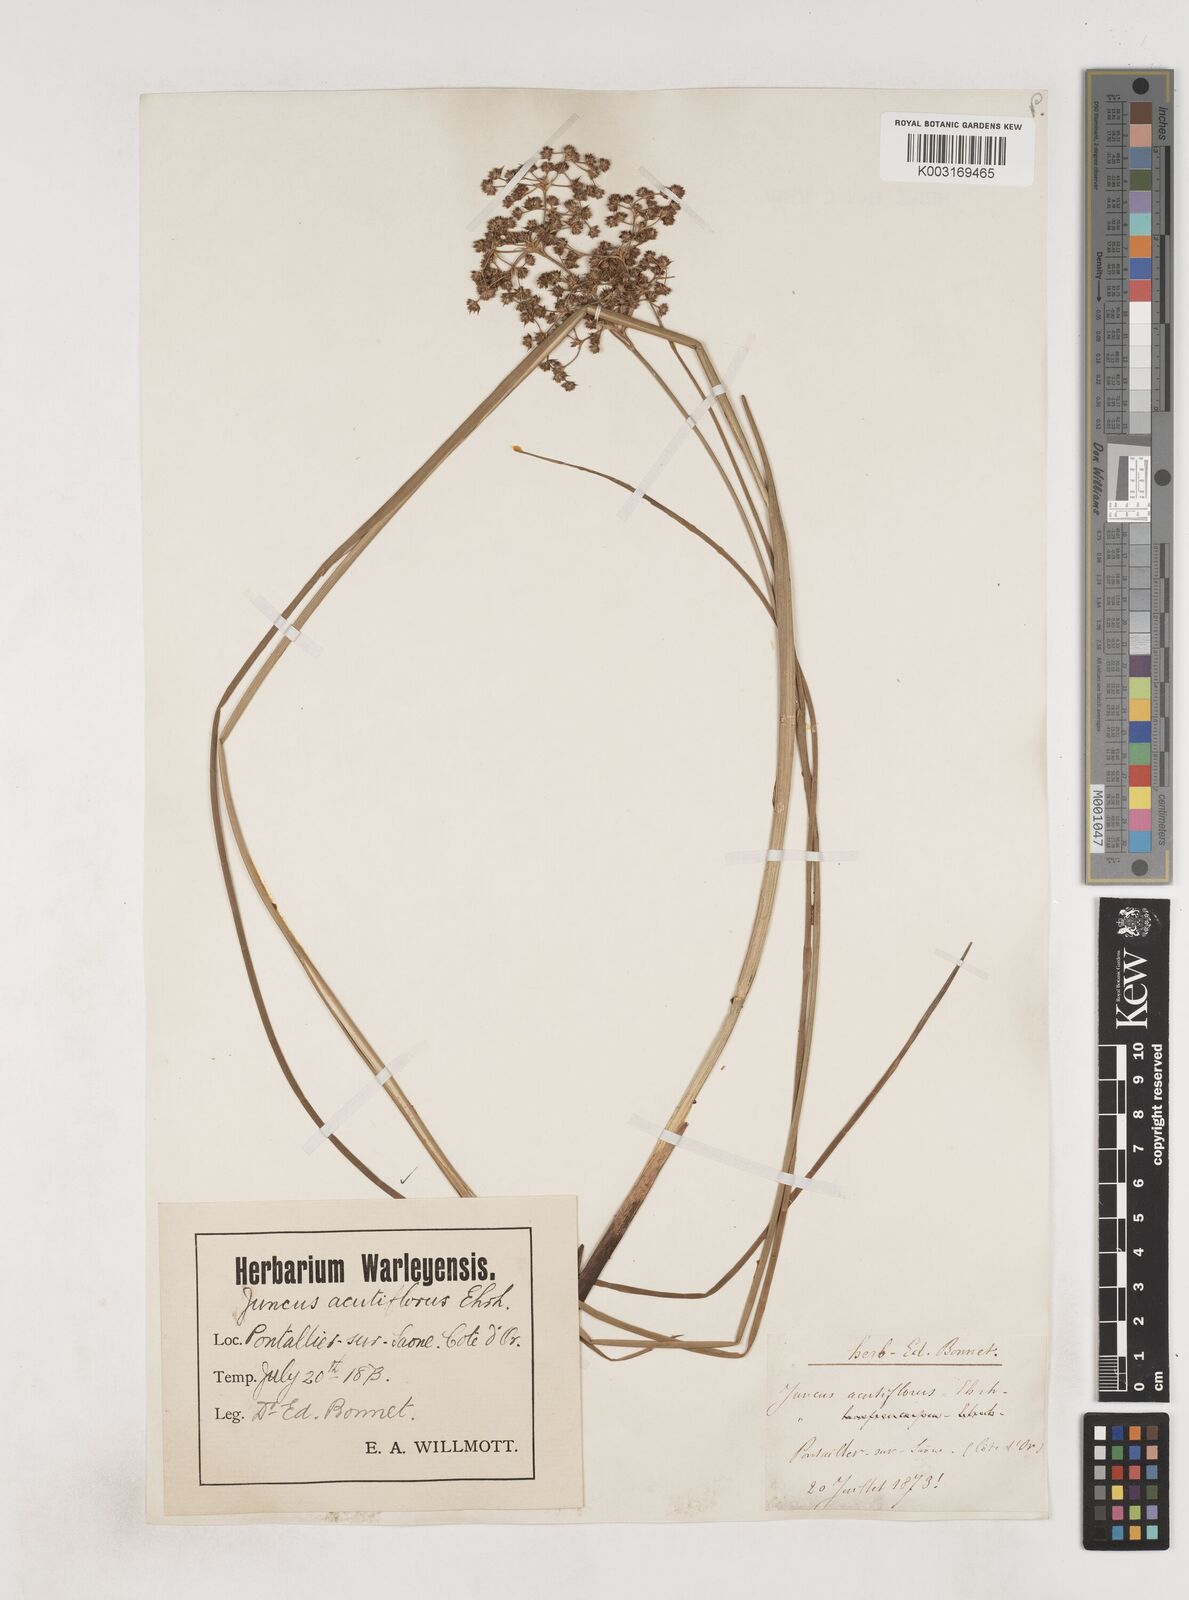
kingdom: Plantae
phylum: Tracheophyta
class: Liliopsida
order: Poales
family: Juncaceae
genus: Juncus
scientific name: Juncus acutiflorus
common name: Sharp-flowered rush
